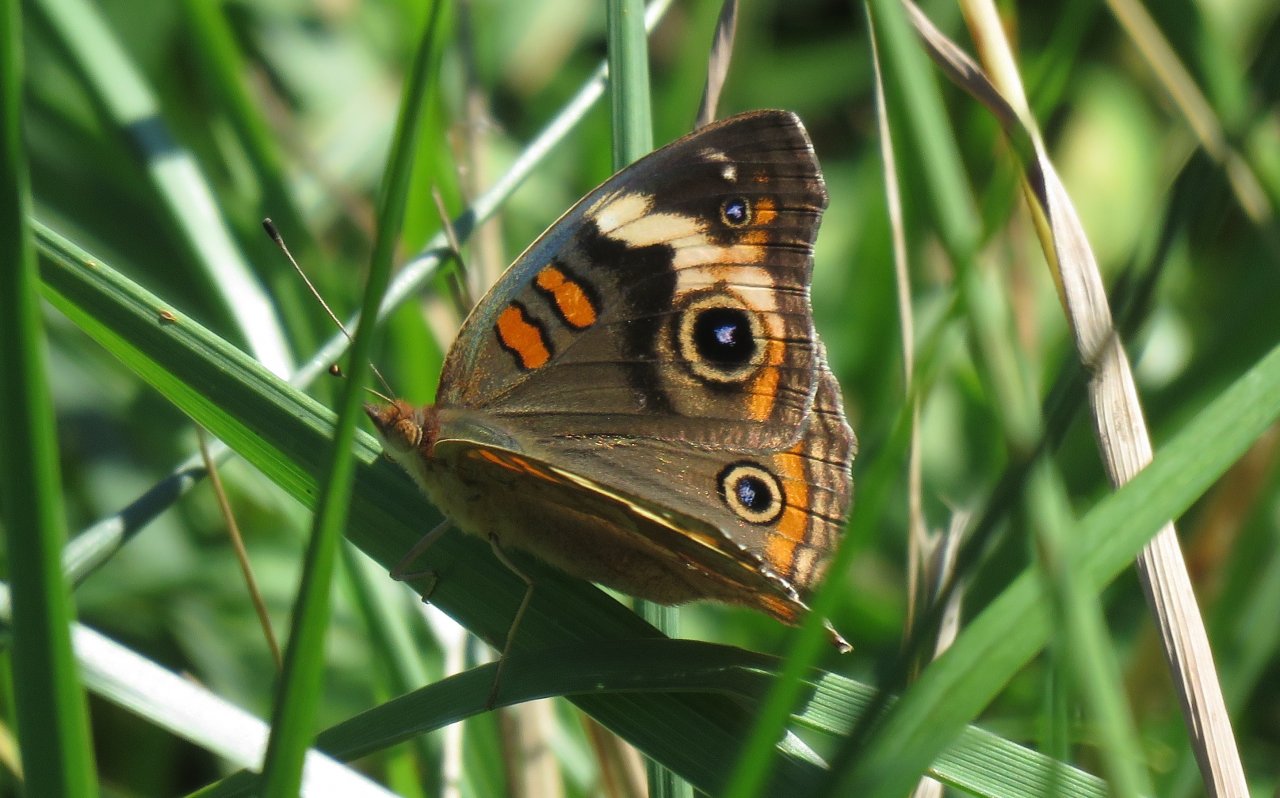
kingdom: Animalia
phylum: Arthropoda
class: Insecta
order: Lepidoptera
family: Nymphalidae
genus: Junonia
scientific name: Junonia coenia
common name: Common Buckeye
